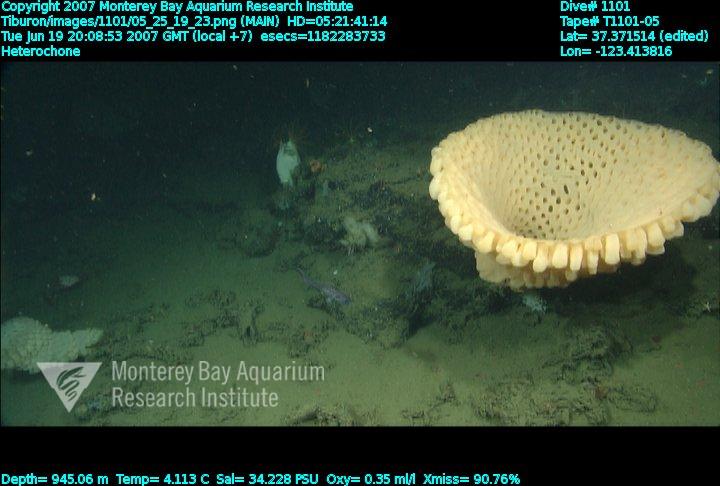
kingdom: Animalia
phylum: Porifera
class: Hexactinellida
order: Sceptrulophora
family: Aphrocallistidae
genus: Heterochone
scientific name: Heterochone
